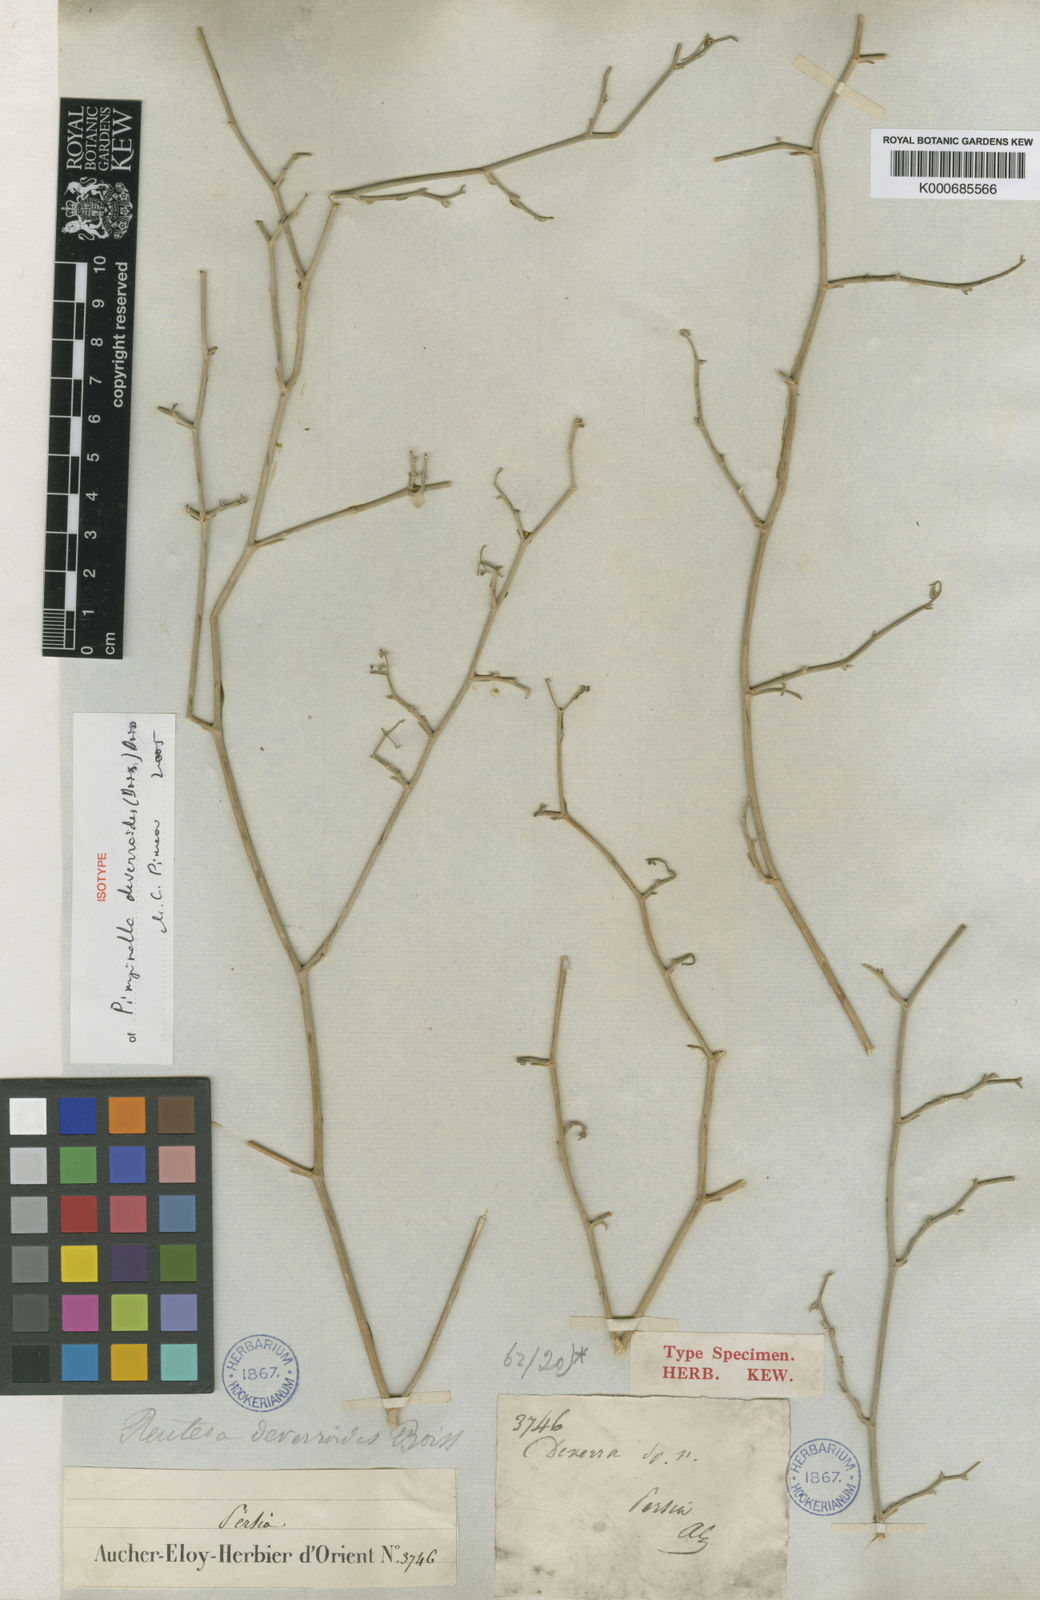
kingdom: Plantae
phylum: Tracheophyta
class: Magnoliopsida
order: Apiales
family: Apiaceae
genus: Pimpinella
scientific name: Pimpinella deverroides
